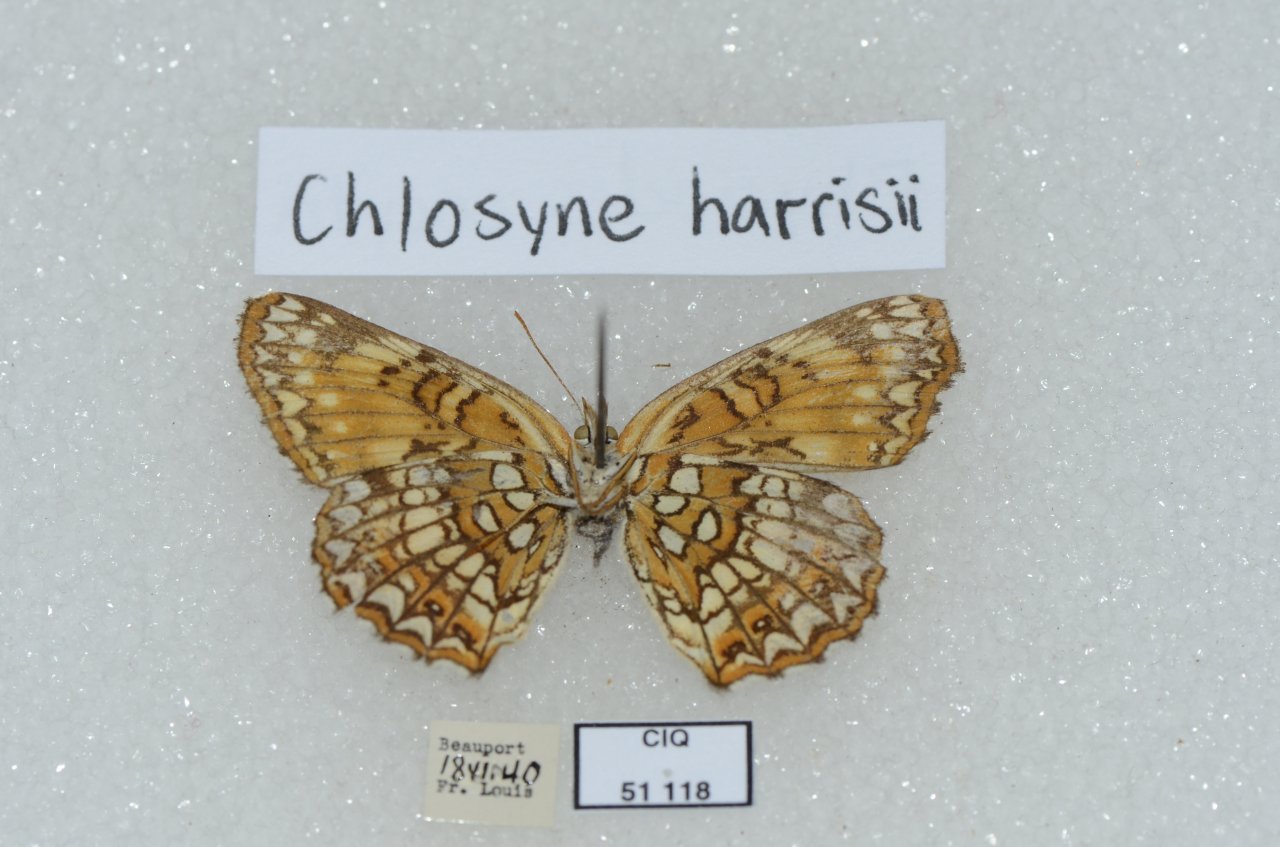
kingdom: Animalia
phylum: Arthropoda
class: Insecta
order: Lepidoptera
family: Nymphalidae
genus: Chlosyne
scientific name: Chlosyne harrisii
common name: Harris's Checkerspot
